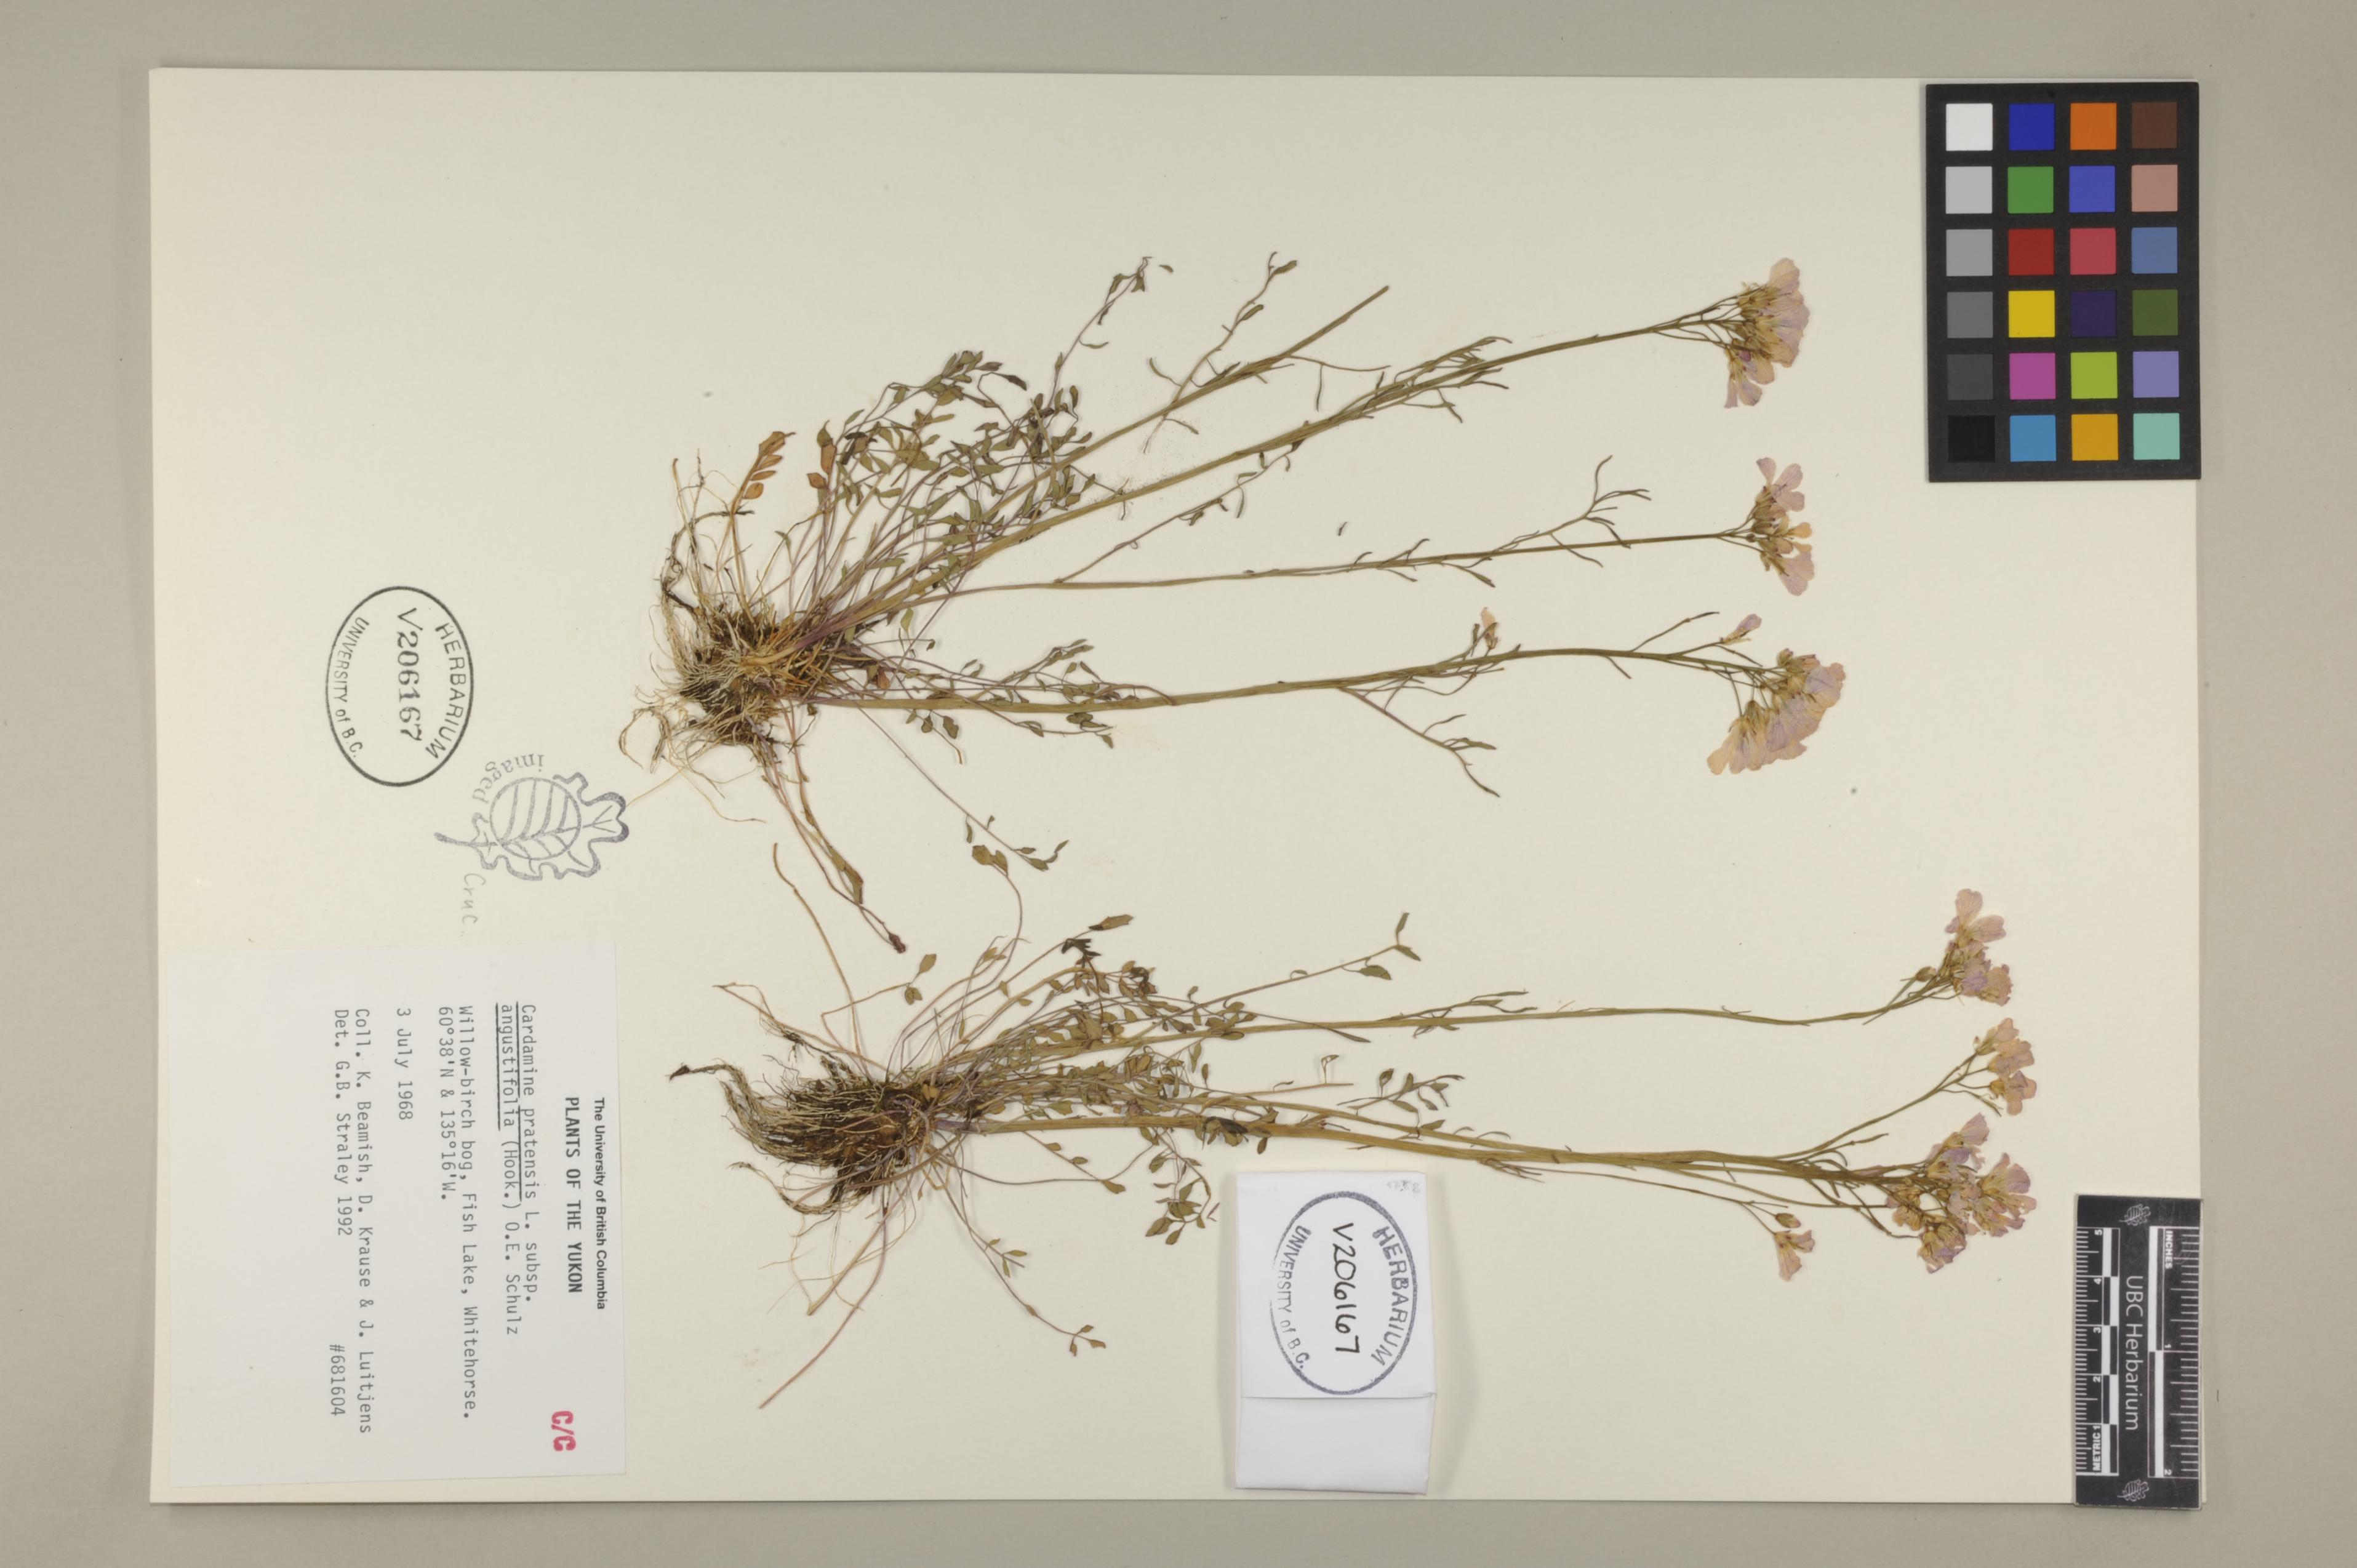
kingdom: Plantae
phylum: Tracheophyta
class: Magnoliopsida
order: Brassicales
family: Brassicaceae
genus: Cardamine
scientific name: Cardamine nymanii
